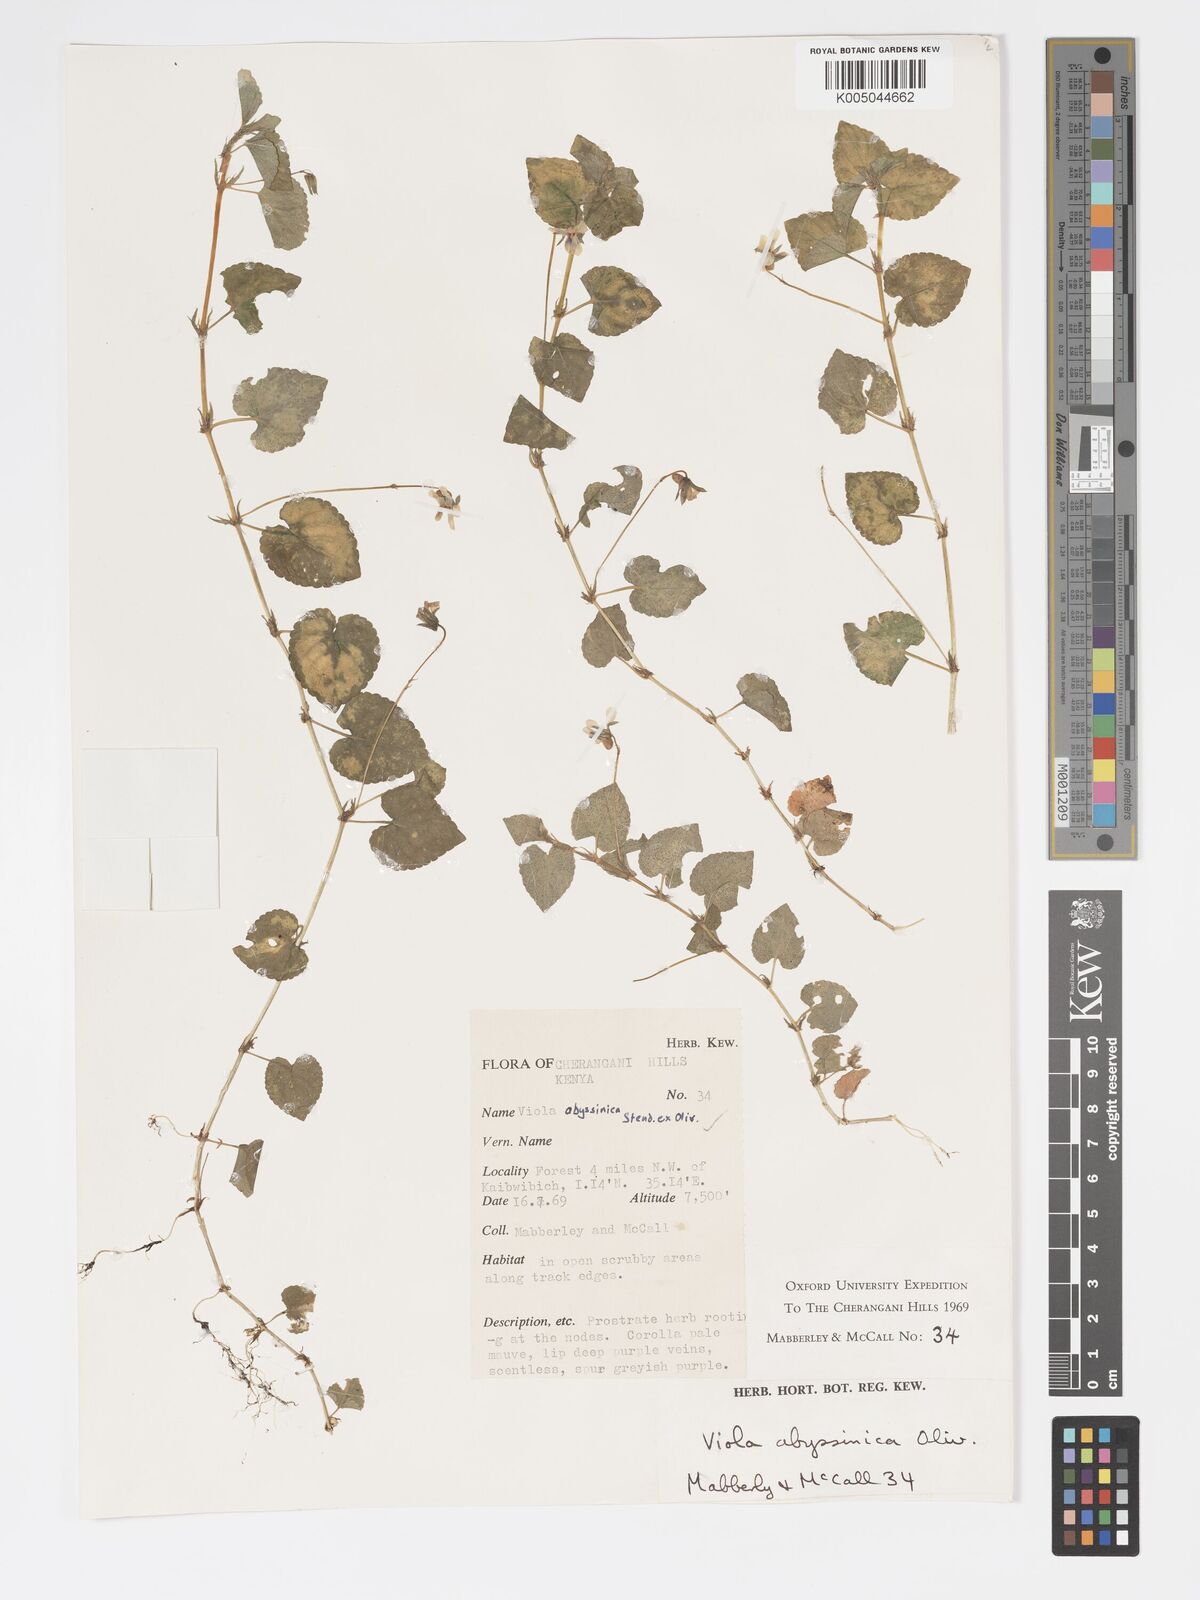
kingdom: Plantae
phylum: Tracheophyta
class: Magnoliopsida
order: Malpighiales
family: Violaceae
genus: Viola
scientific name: Viola abyssinica
